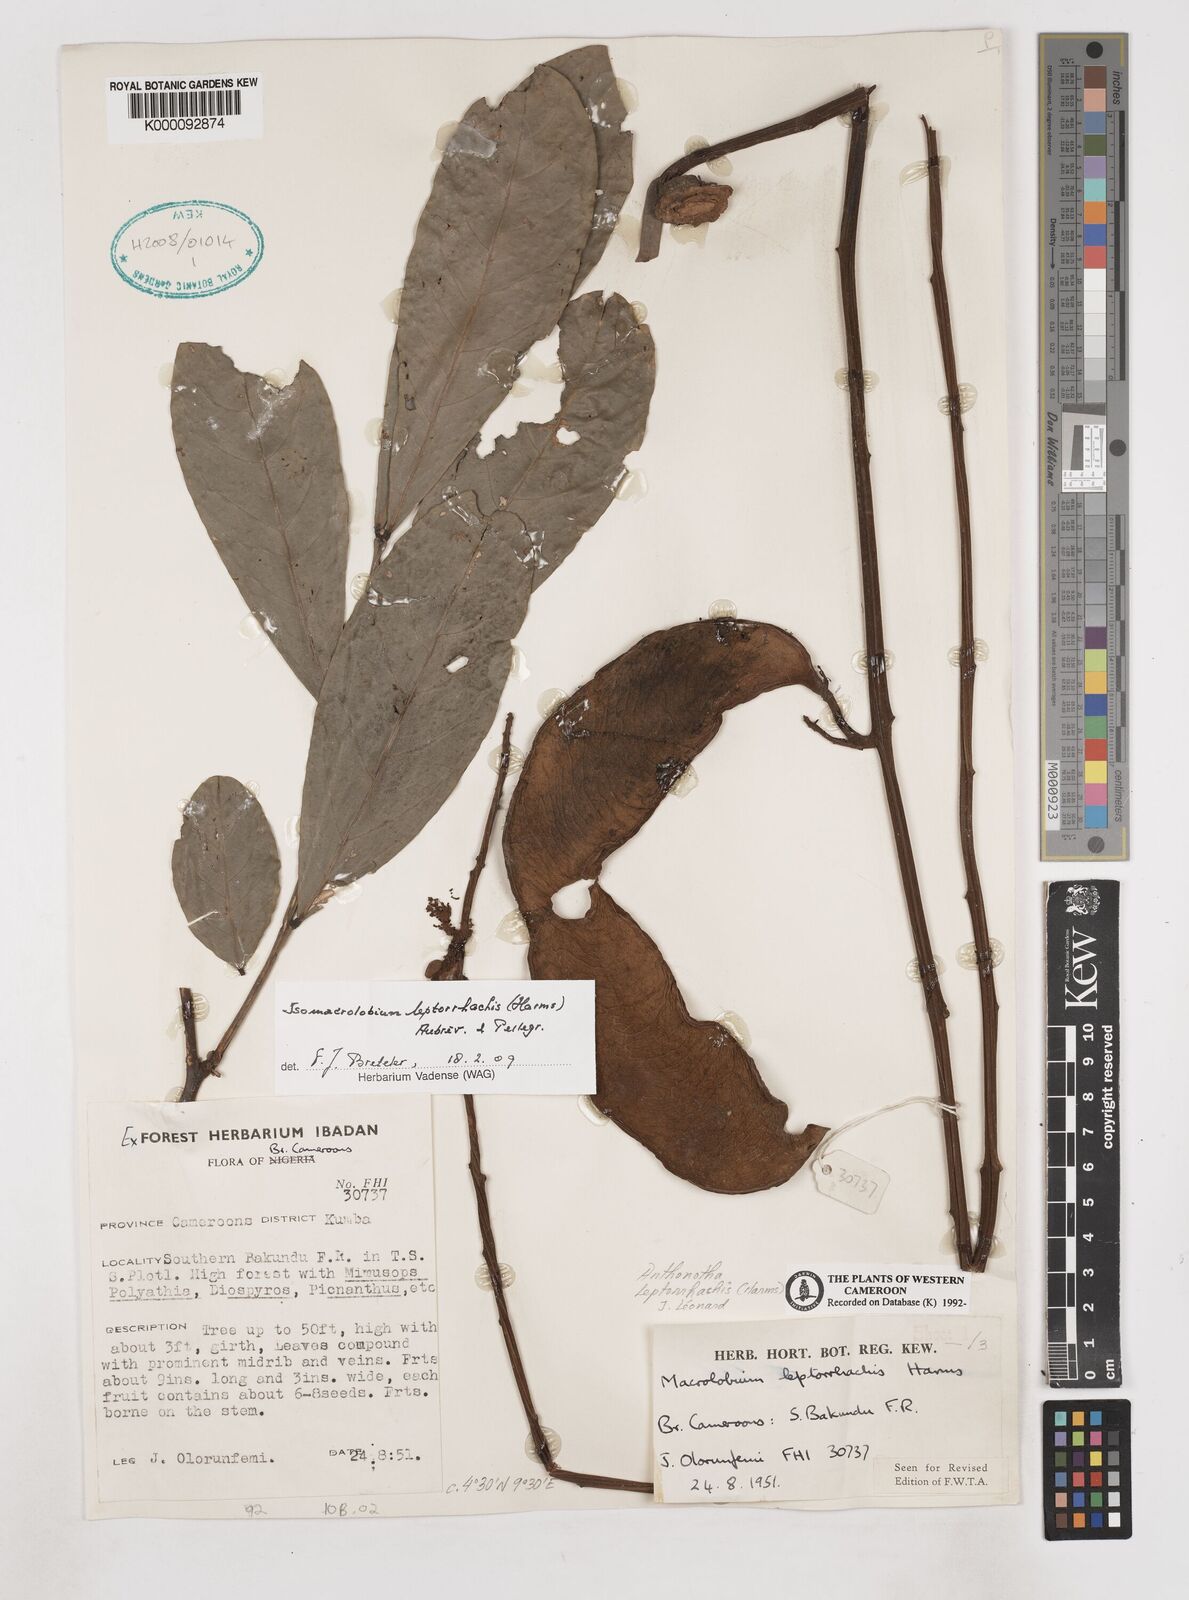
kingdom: Plantae
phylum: Tracheophyta
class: Magnoliopsida
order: Fabales
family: Fabaceae
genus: Englerodendron
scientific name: Englerodendron
